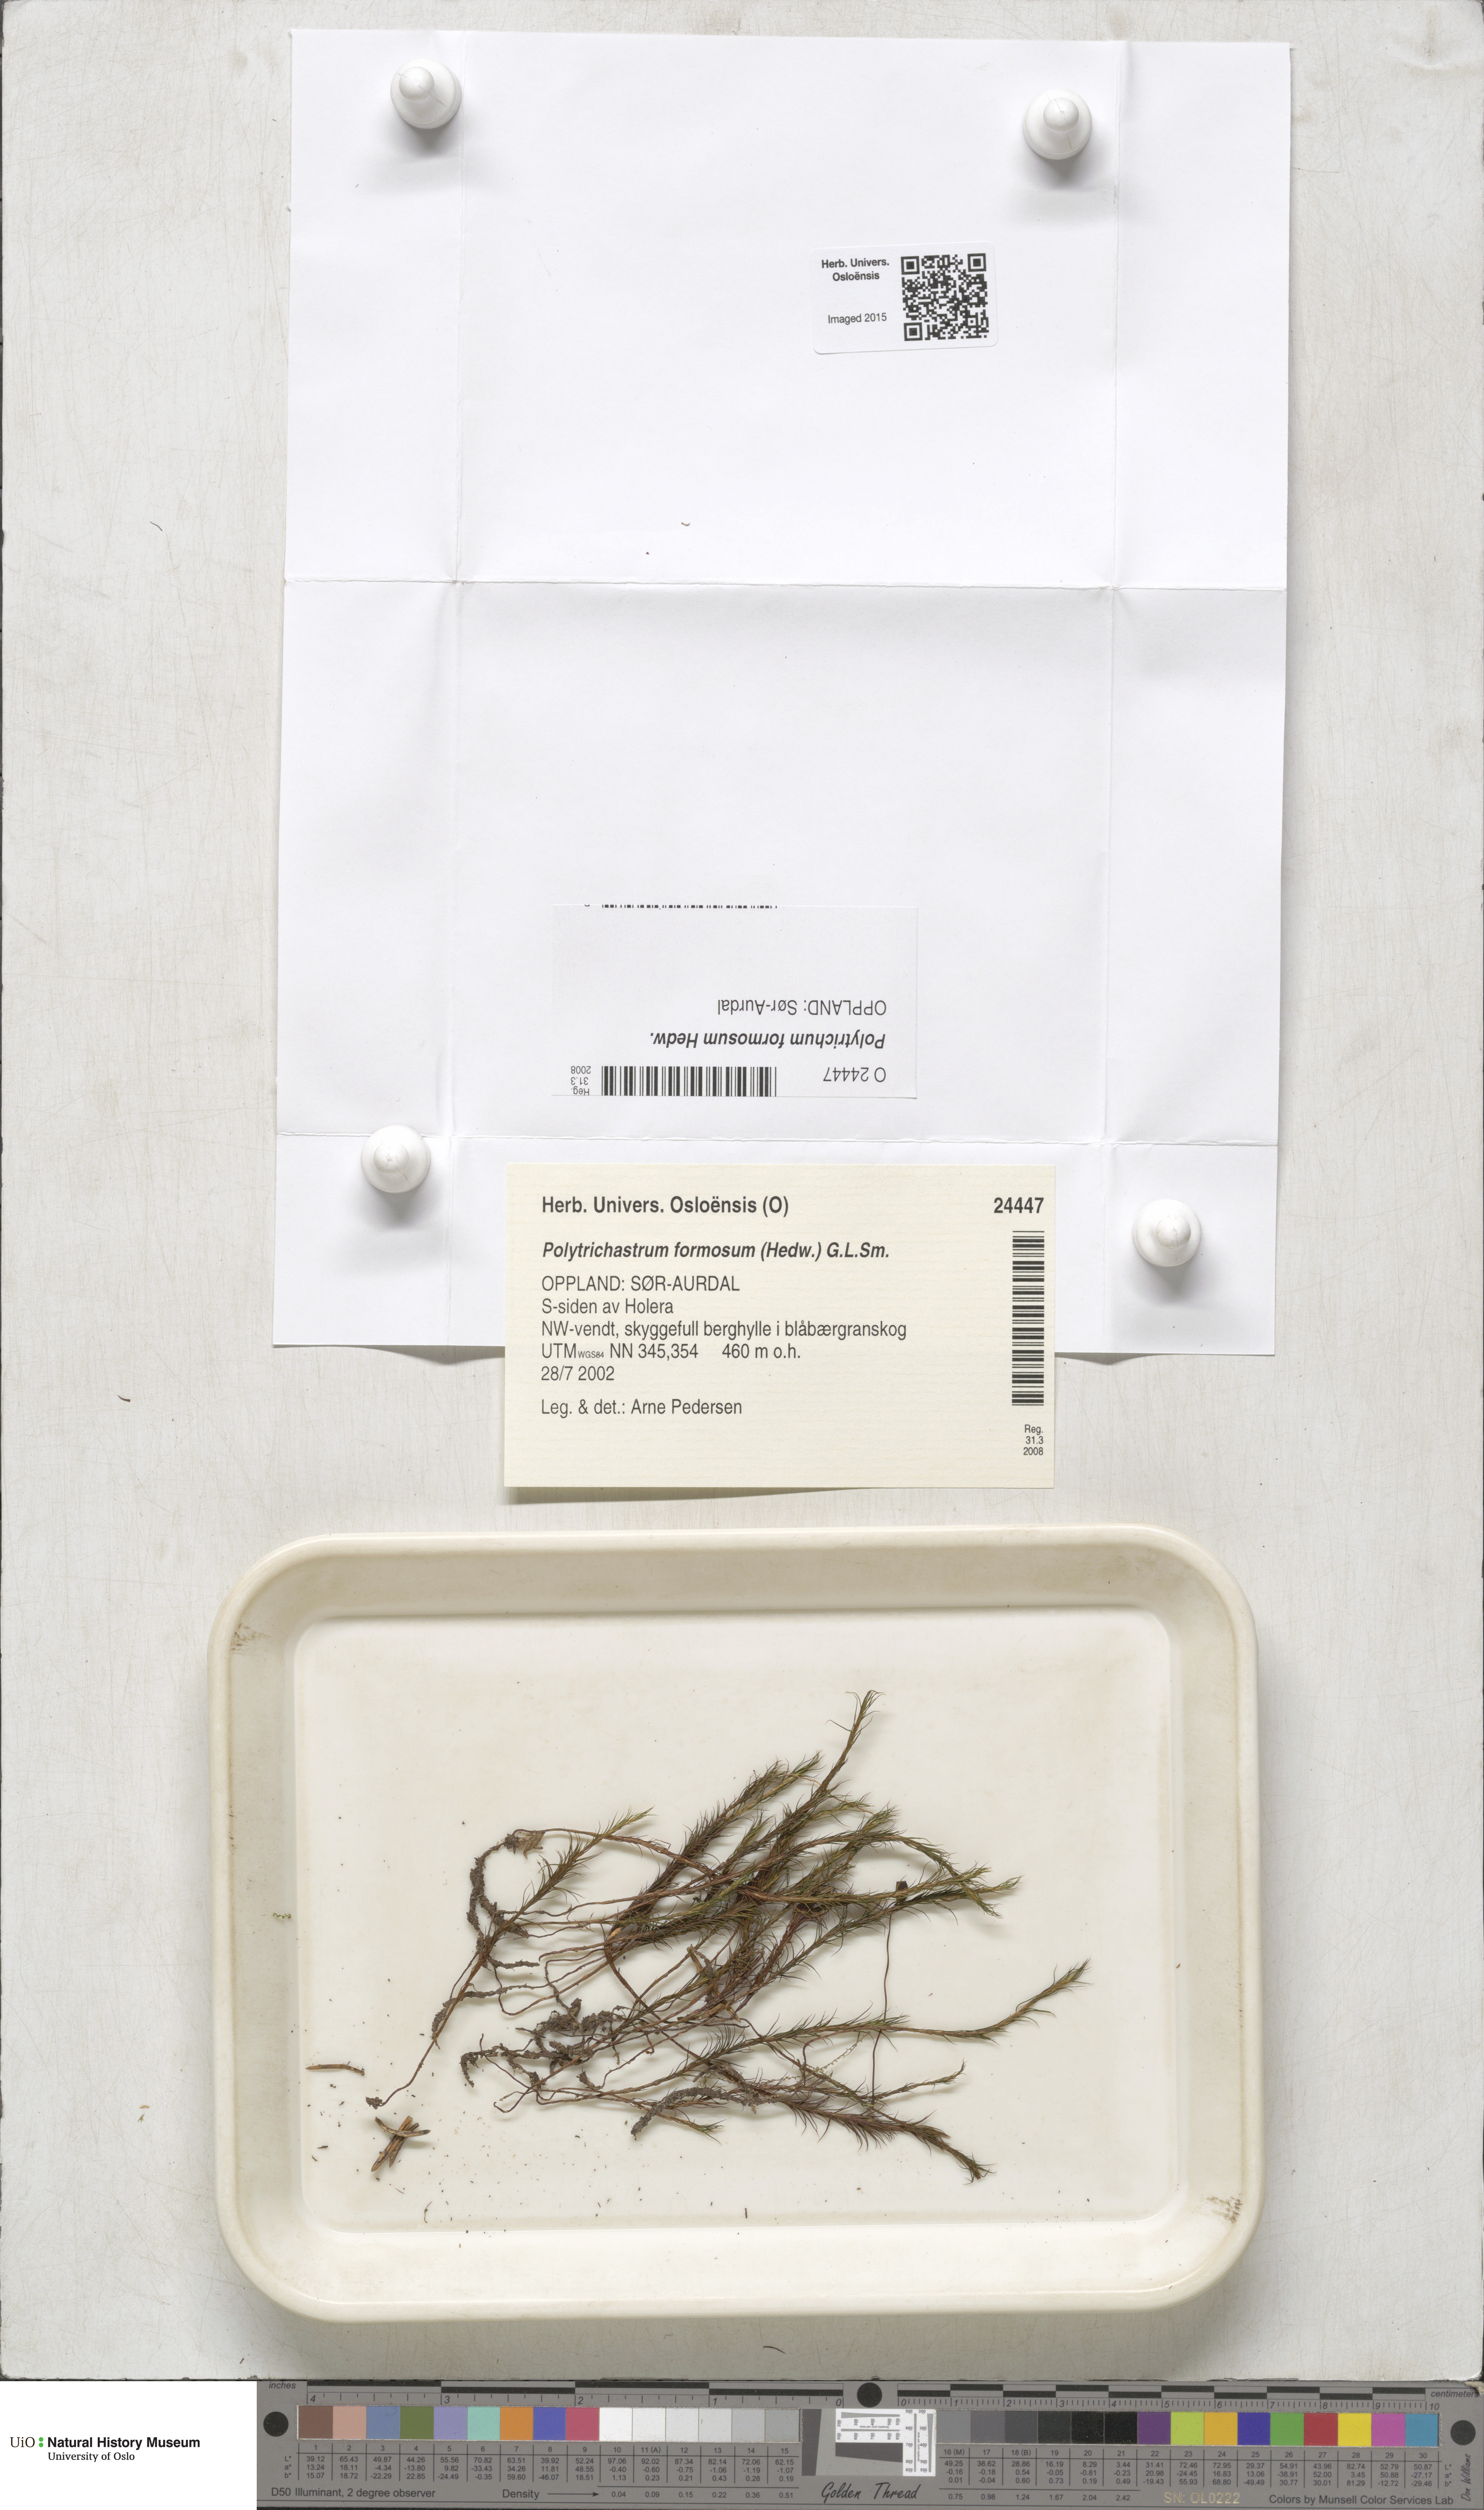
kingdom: Plantae
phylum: Bryophyta
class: Polytrichopsida
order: Polytrichales
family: Polytrichaceae
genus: Polytrichum
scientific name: Polytrichum formosum
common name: Bank haircap moss
